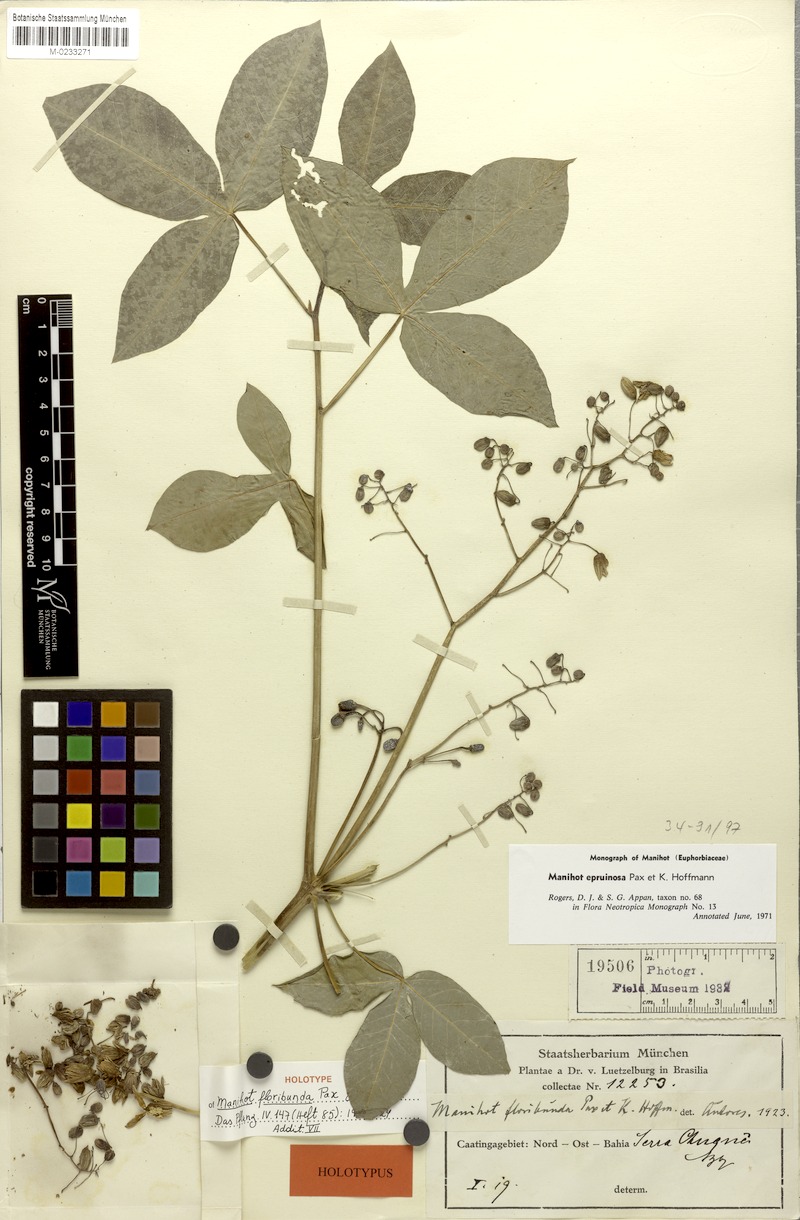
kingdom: Plantae
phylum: Tracheophyta
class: Magnoliopsida
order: Malpighiales
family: Euphorbiaceae
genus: Manihot
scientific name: Manihot epruinosa
